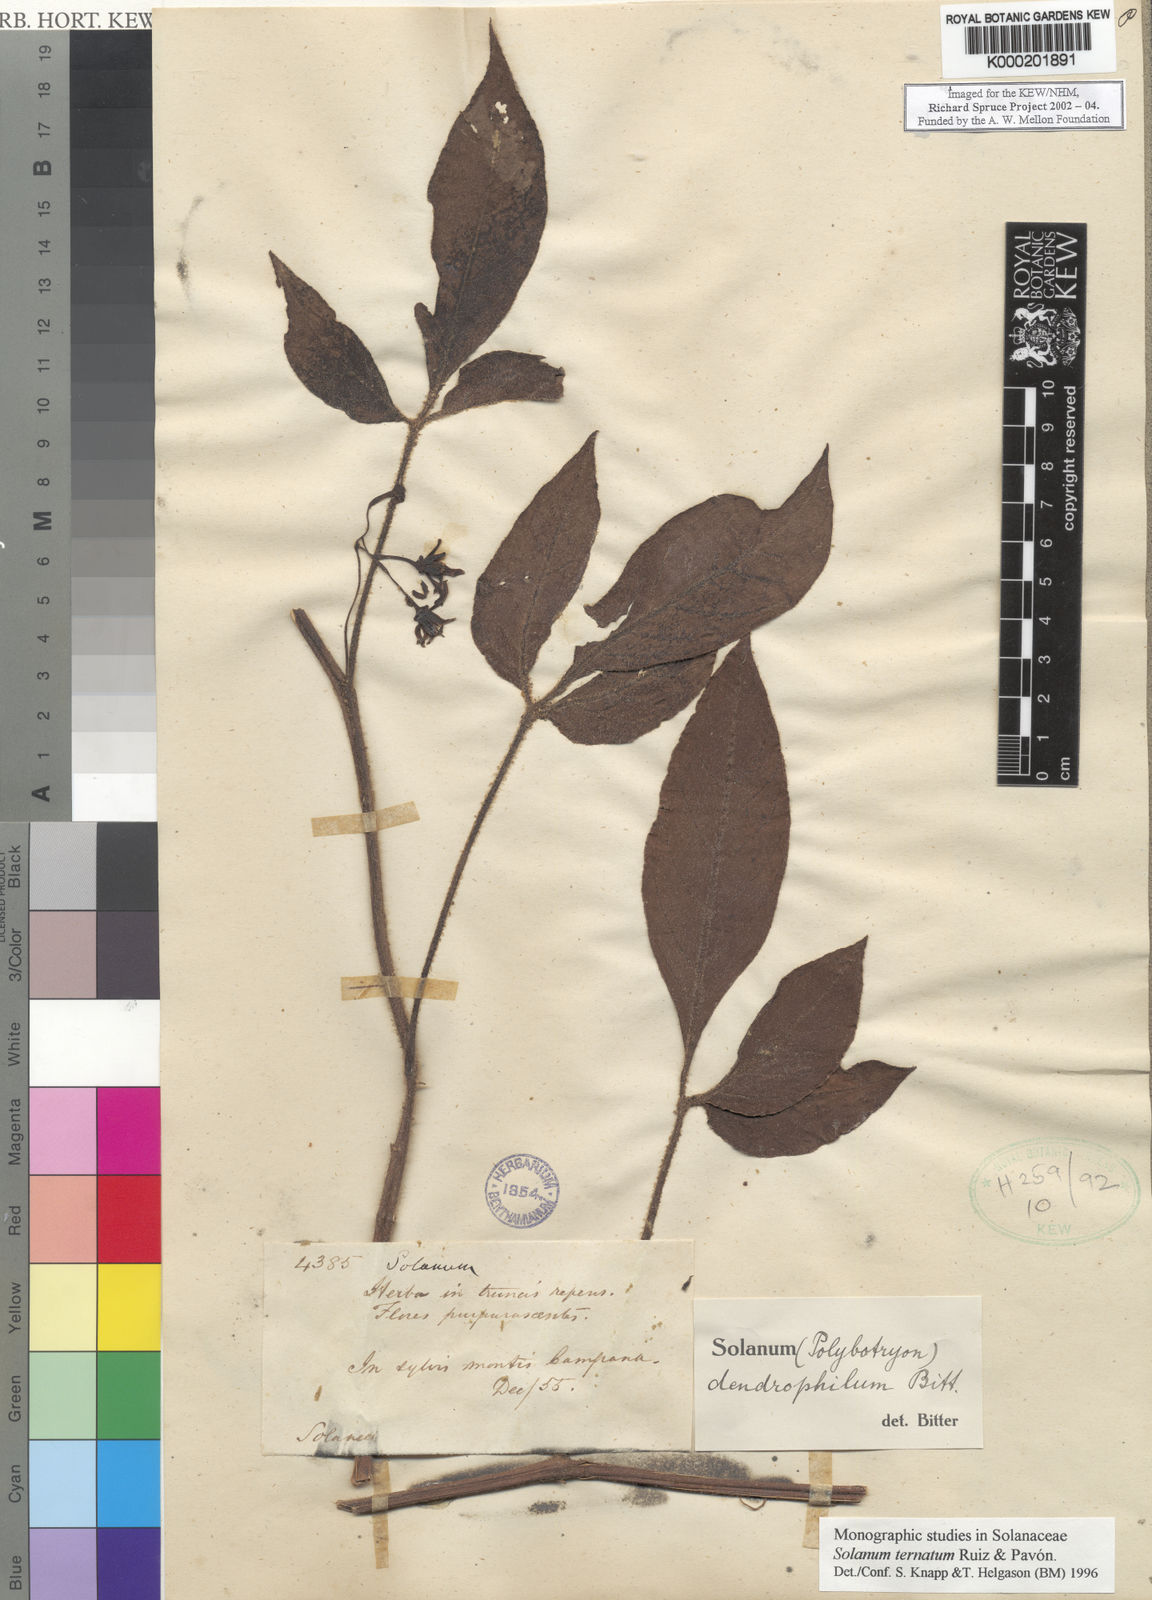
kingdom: Plantae
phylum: Tracheophyta
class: Magnoliopsida
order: Solanales
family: Solanaceae
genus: Solanum
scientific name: Solanum ternatum
